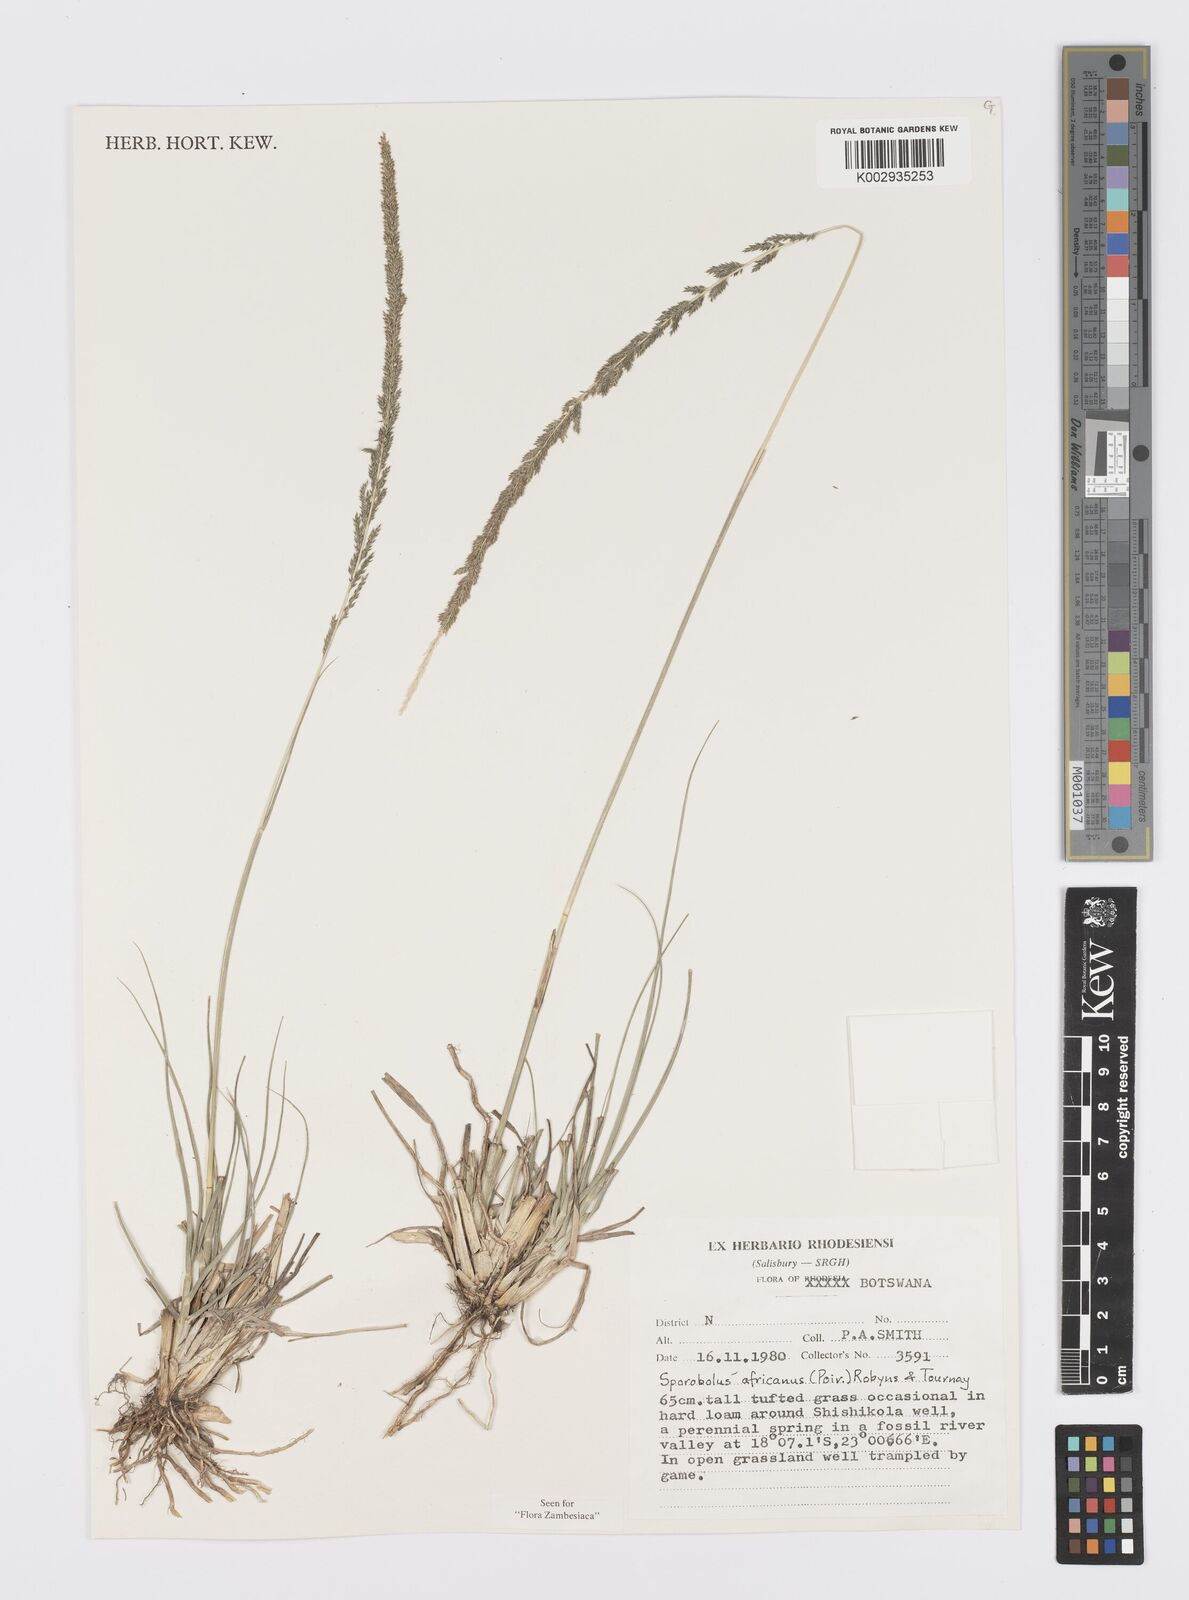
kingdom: Plantae
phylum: Tracheophyta
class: Liliopsida
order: Poales
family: Poaceae
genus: Sporobolus
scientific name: Sporobolus africanus
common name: African dropseed
